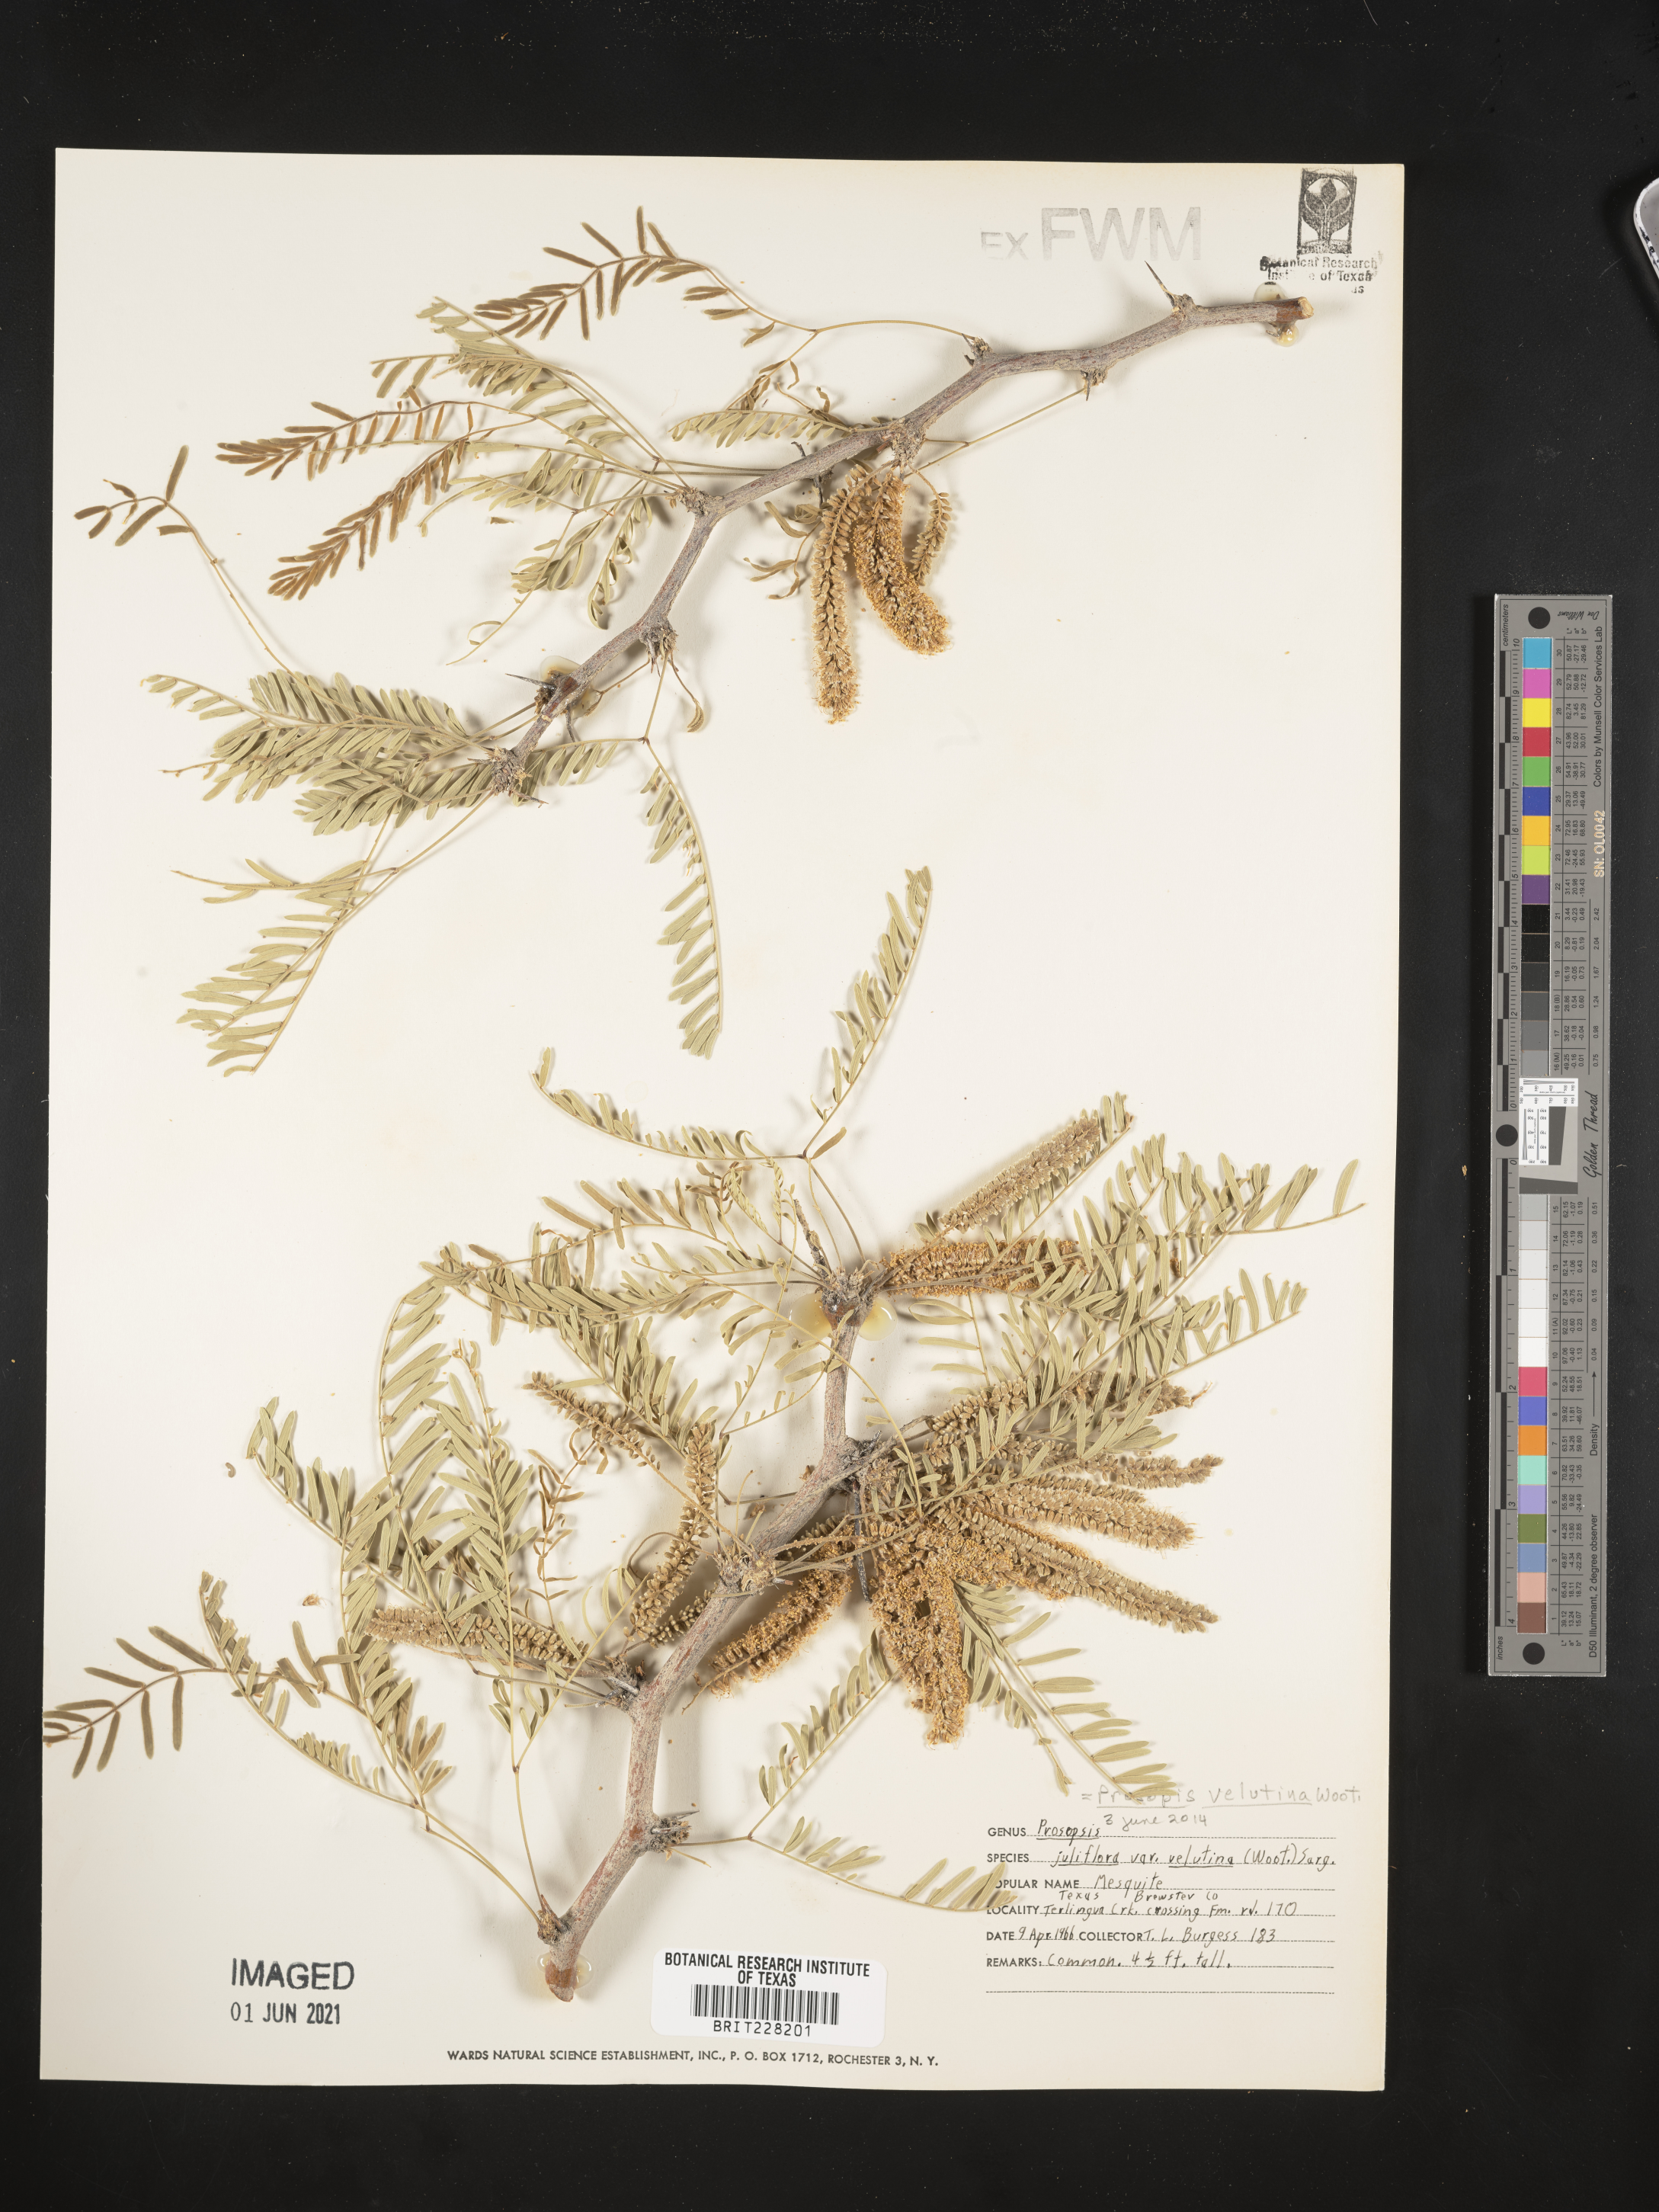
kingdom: Plantae
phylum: Tracheophyta
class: Magnoliopsida
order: Fabales
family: Fabaceae
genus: Prosopis
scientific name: Prosopis velutina
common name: Velvet mesquite
